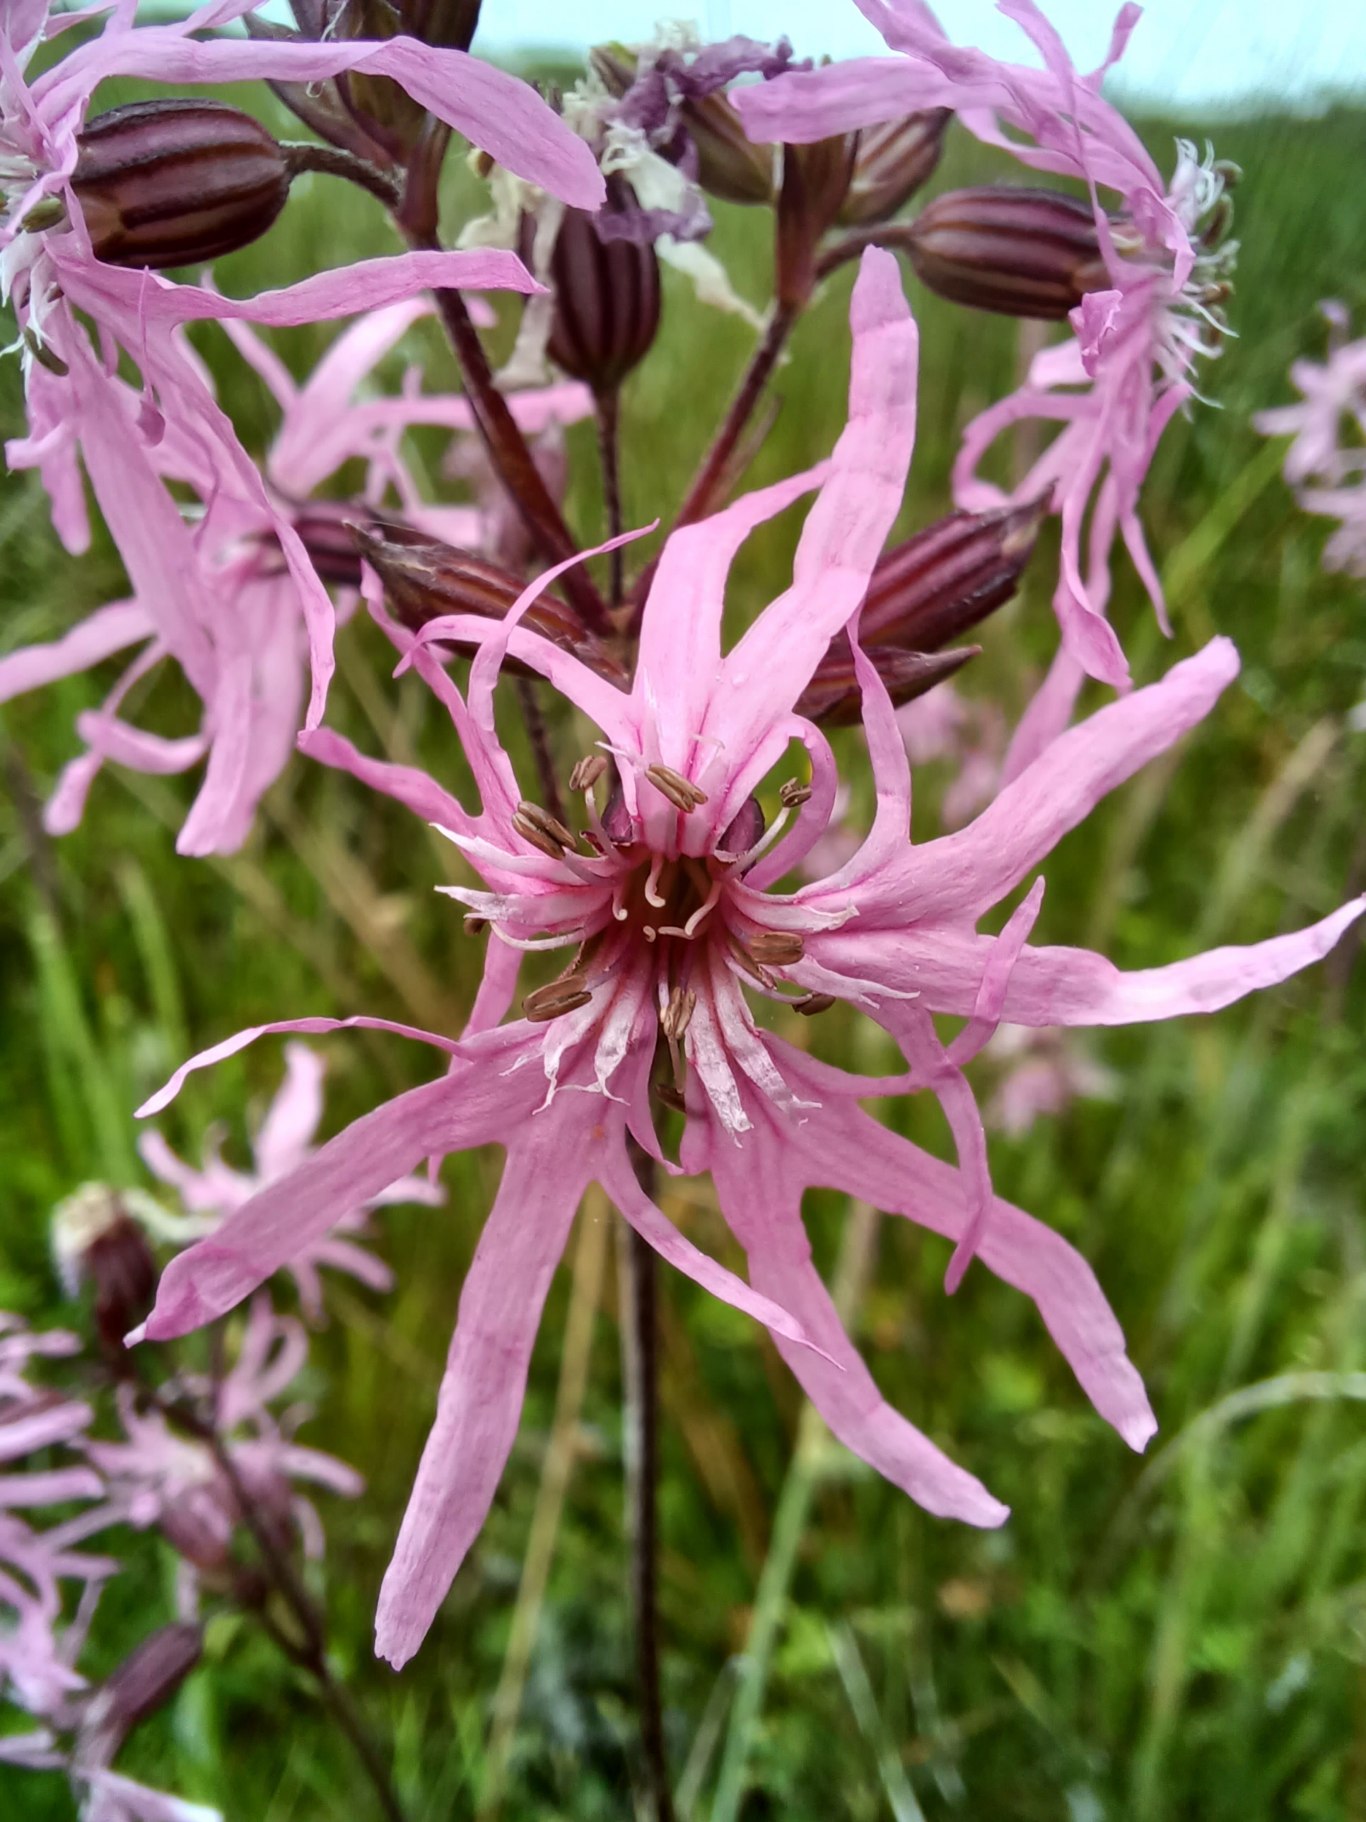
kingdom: Plantae
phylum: Tracheophyta
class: Magnoliopsida
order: Caryophyllales
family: Caryophyllaceae
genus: Silene
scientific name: Silene flos-cuculi
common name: Trævlekrone
